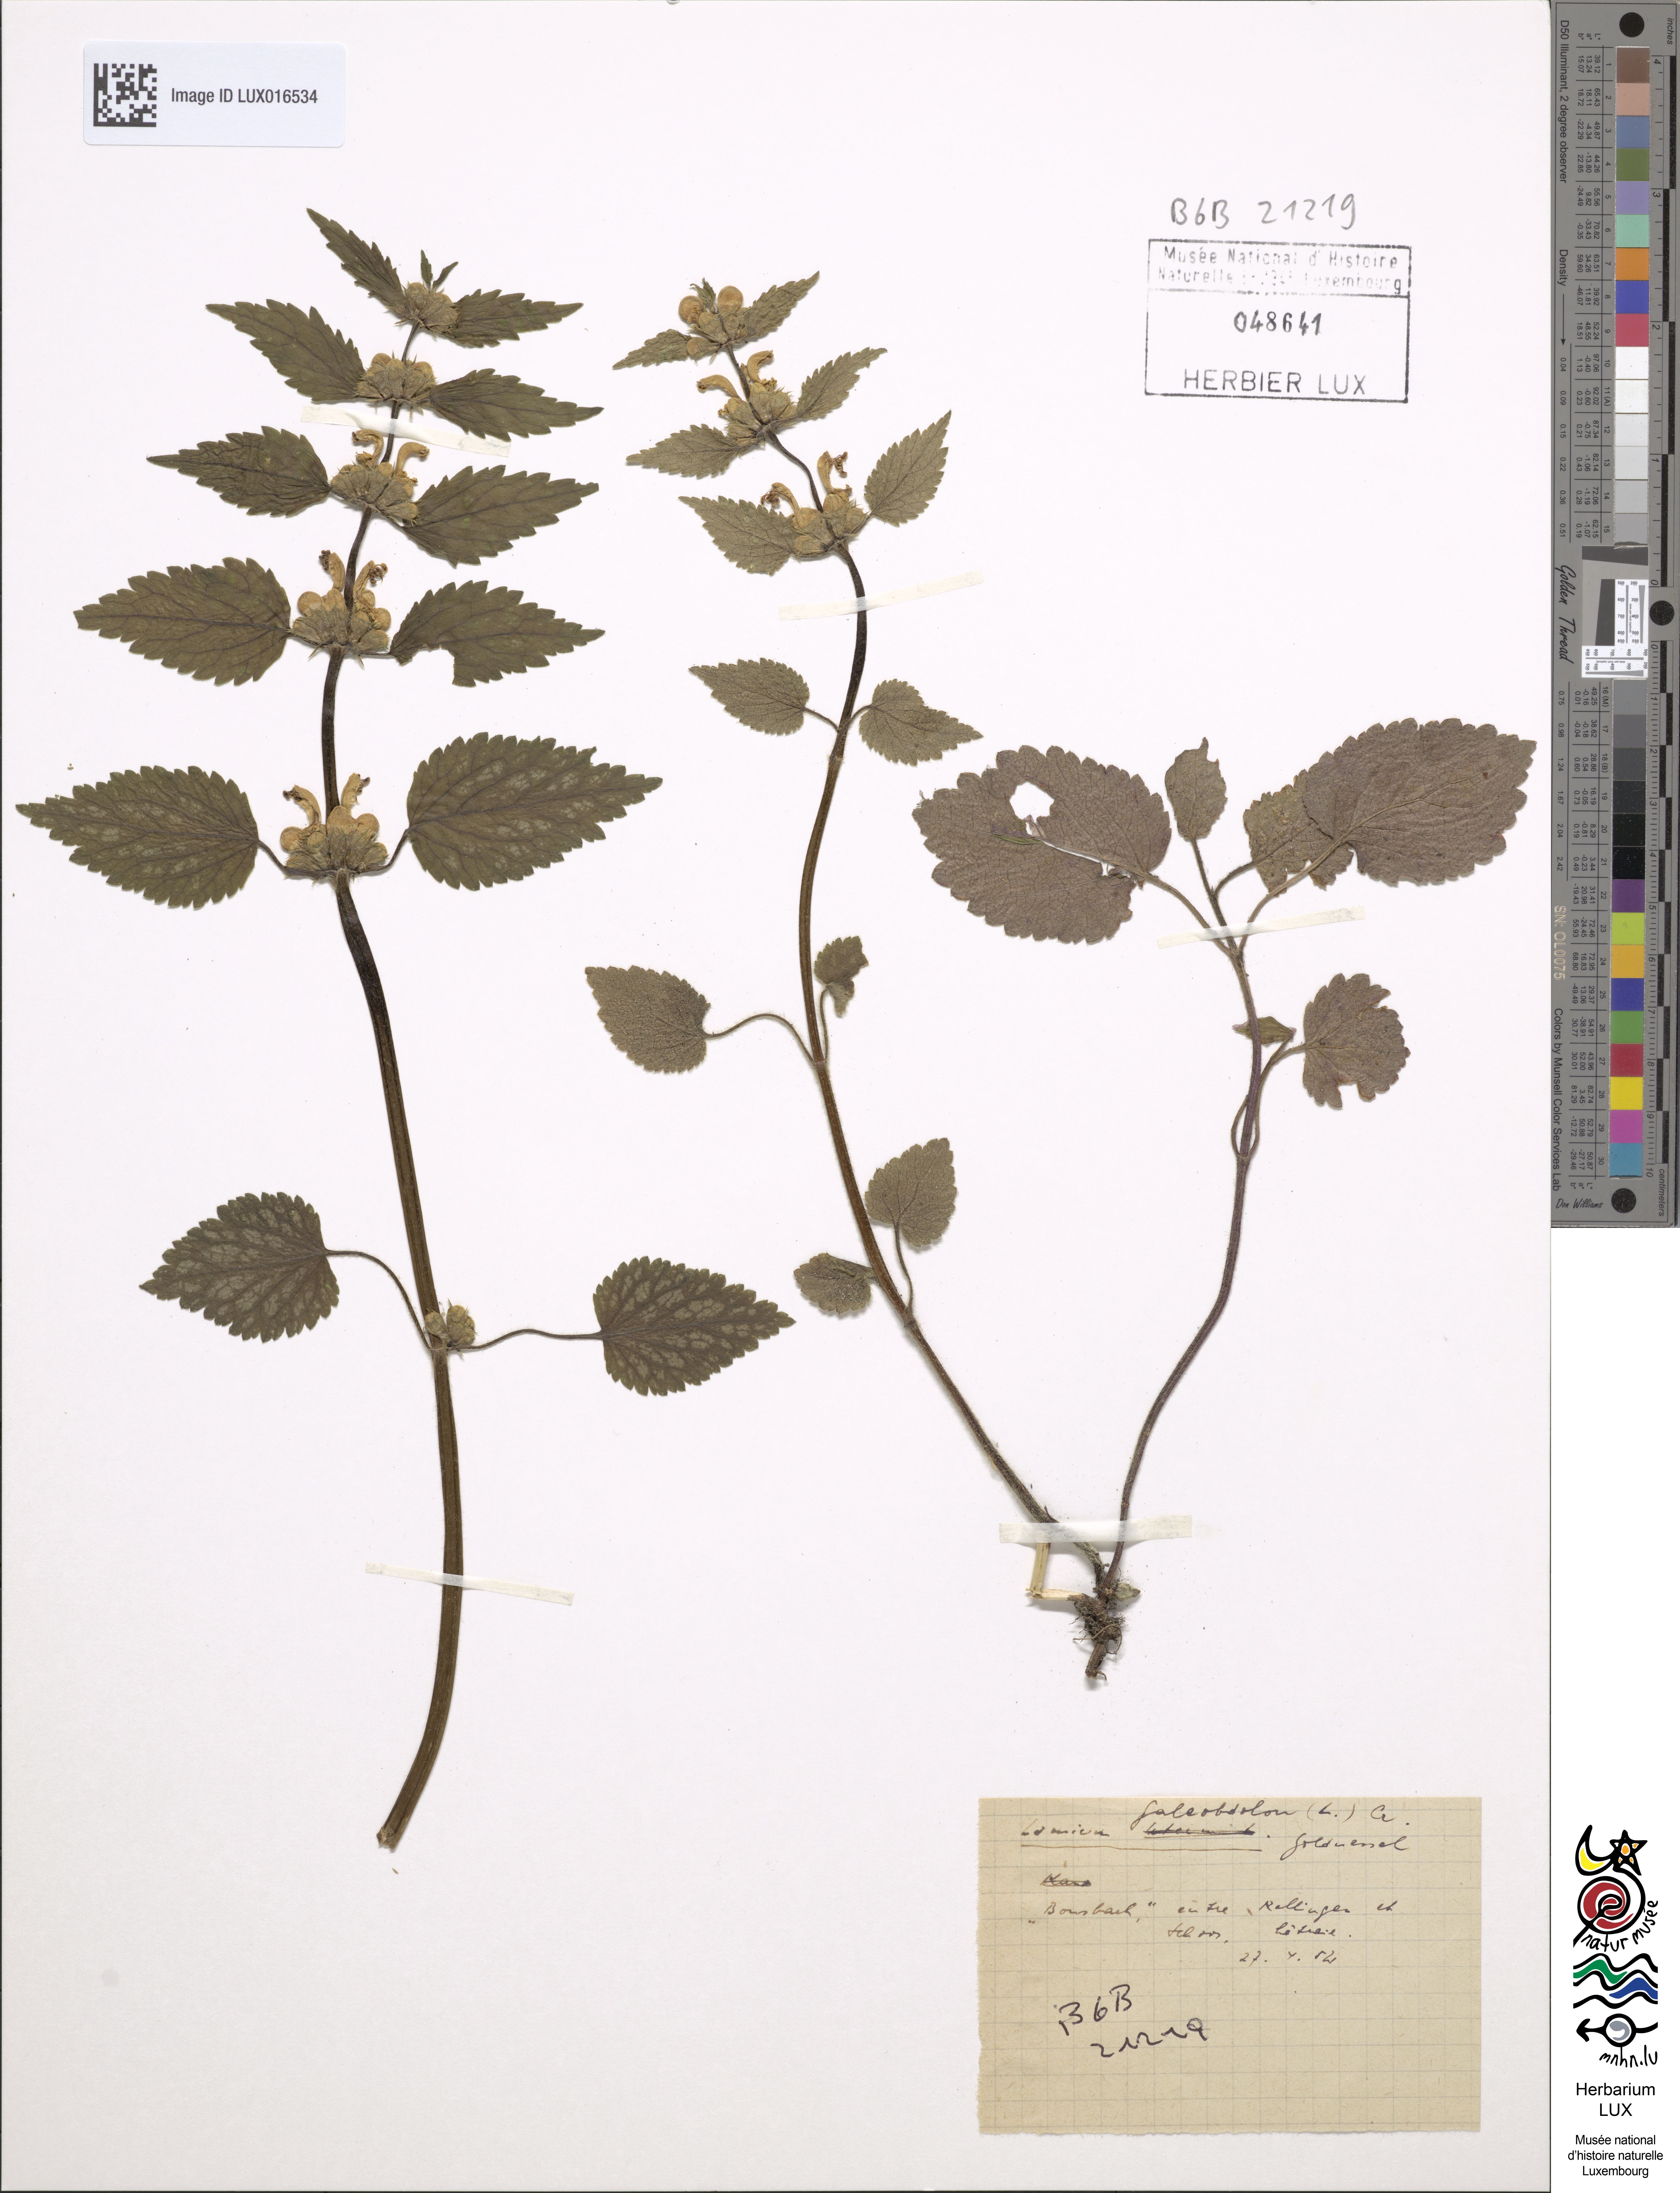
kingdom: Plantae
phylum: Tracheophyta
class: Magnoliopsida
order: Lamiales
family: Lamiaceae
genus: Lamium
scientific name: Lamium galeobdolon
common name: Yellow archangel
